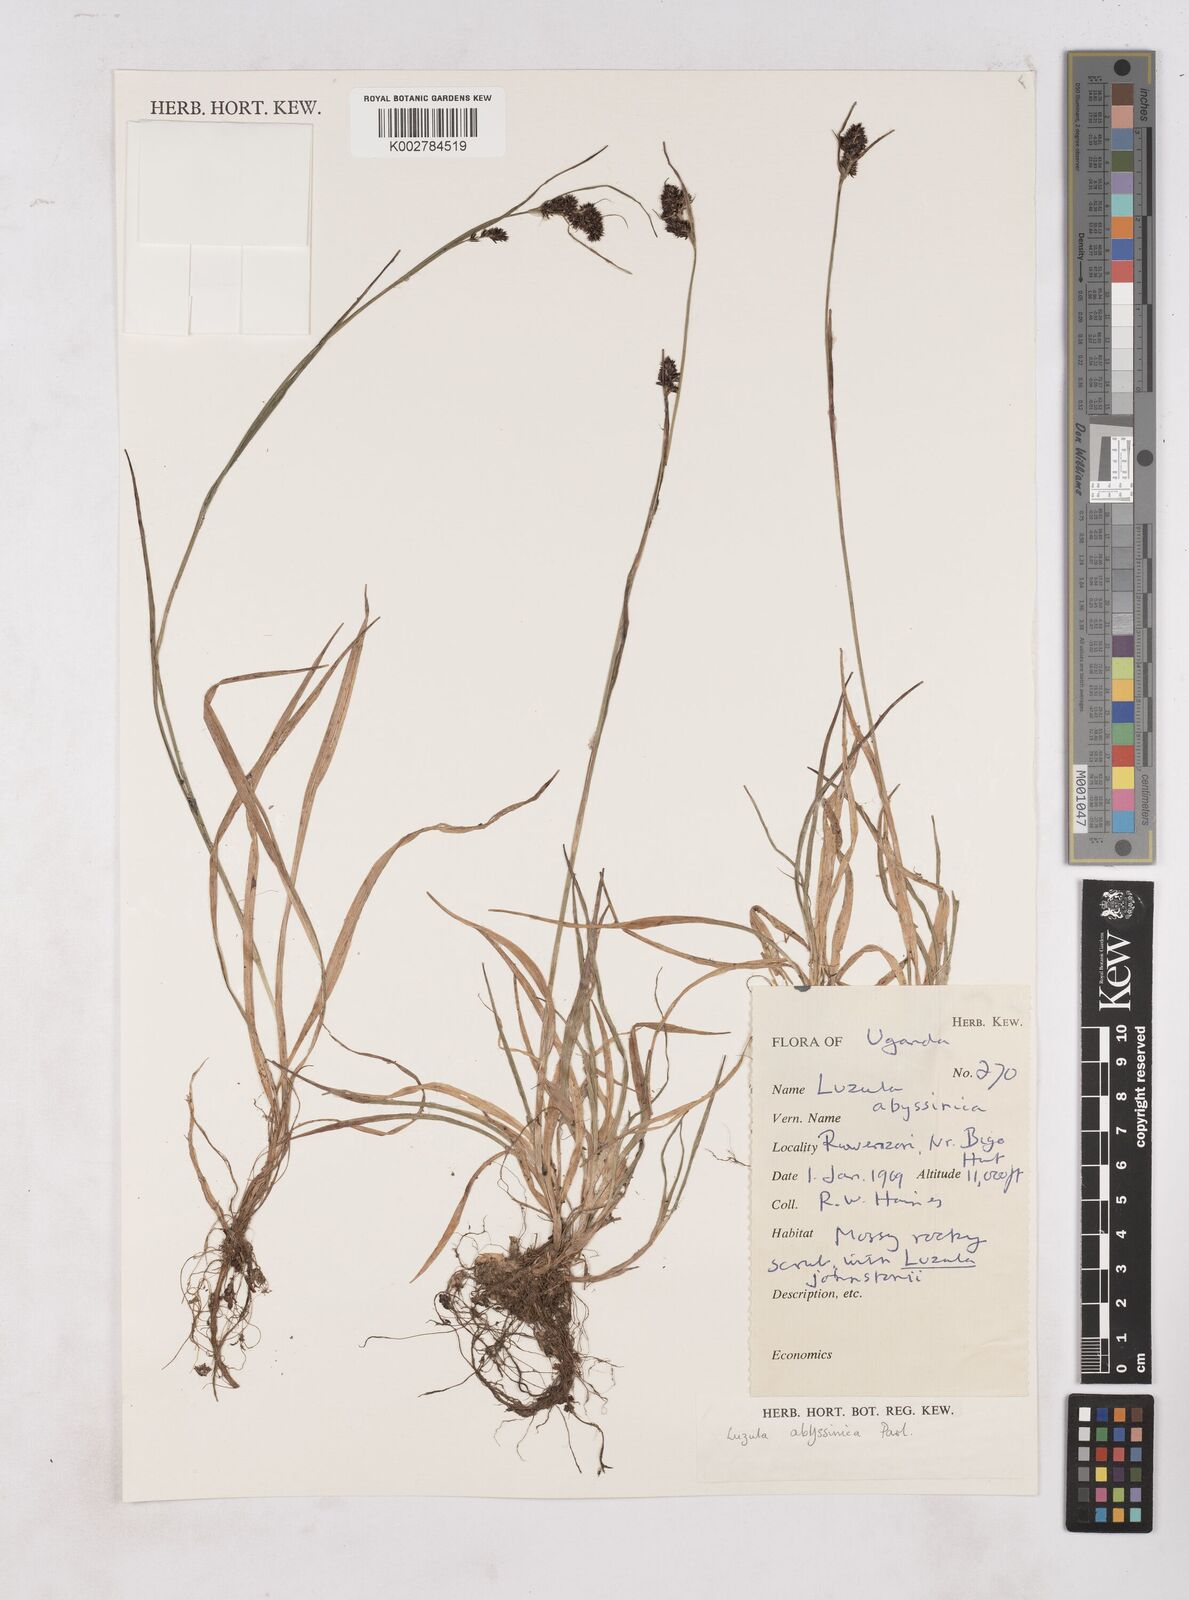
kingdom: Plantae
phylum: Tracheophyta
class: Liliopsida
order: Poales
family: Juncaceae
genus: Luzula
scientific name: Luzula abyssinica
